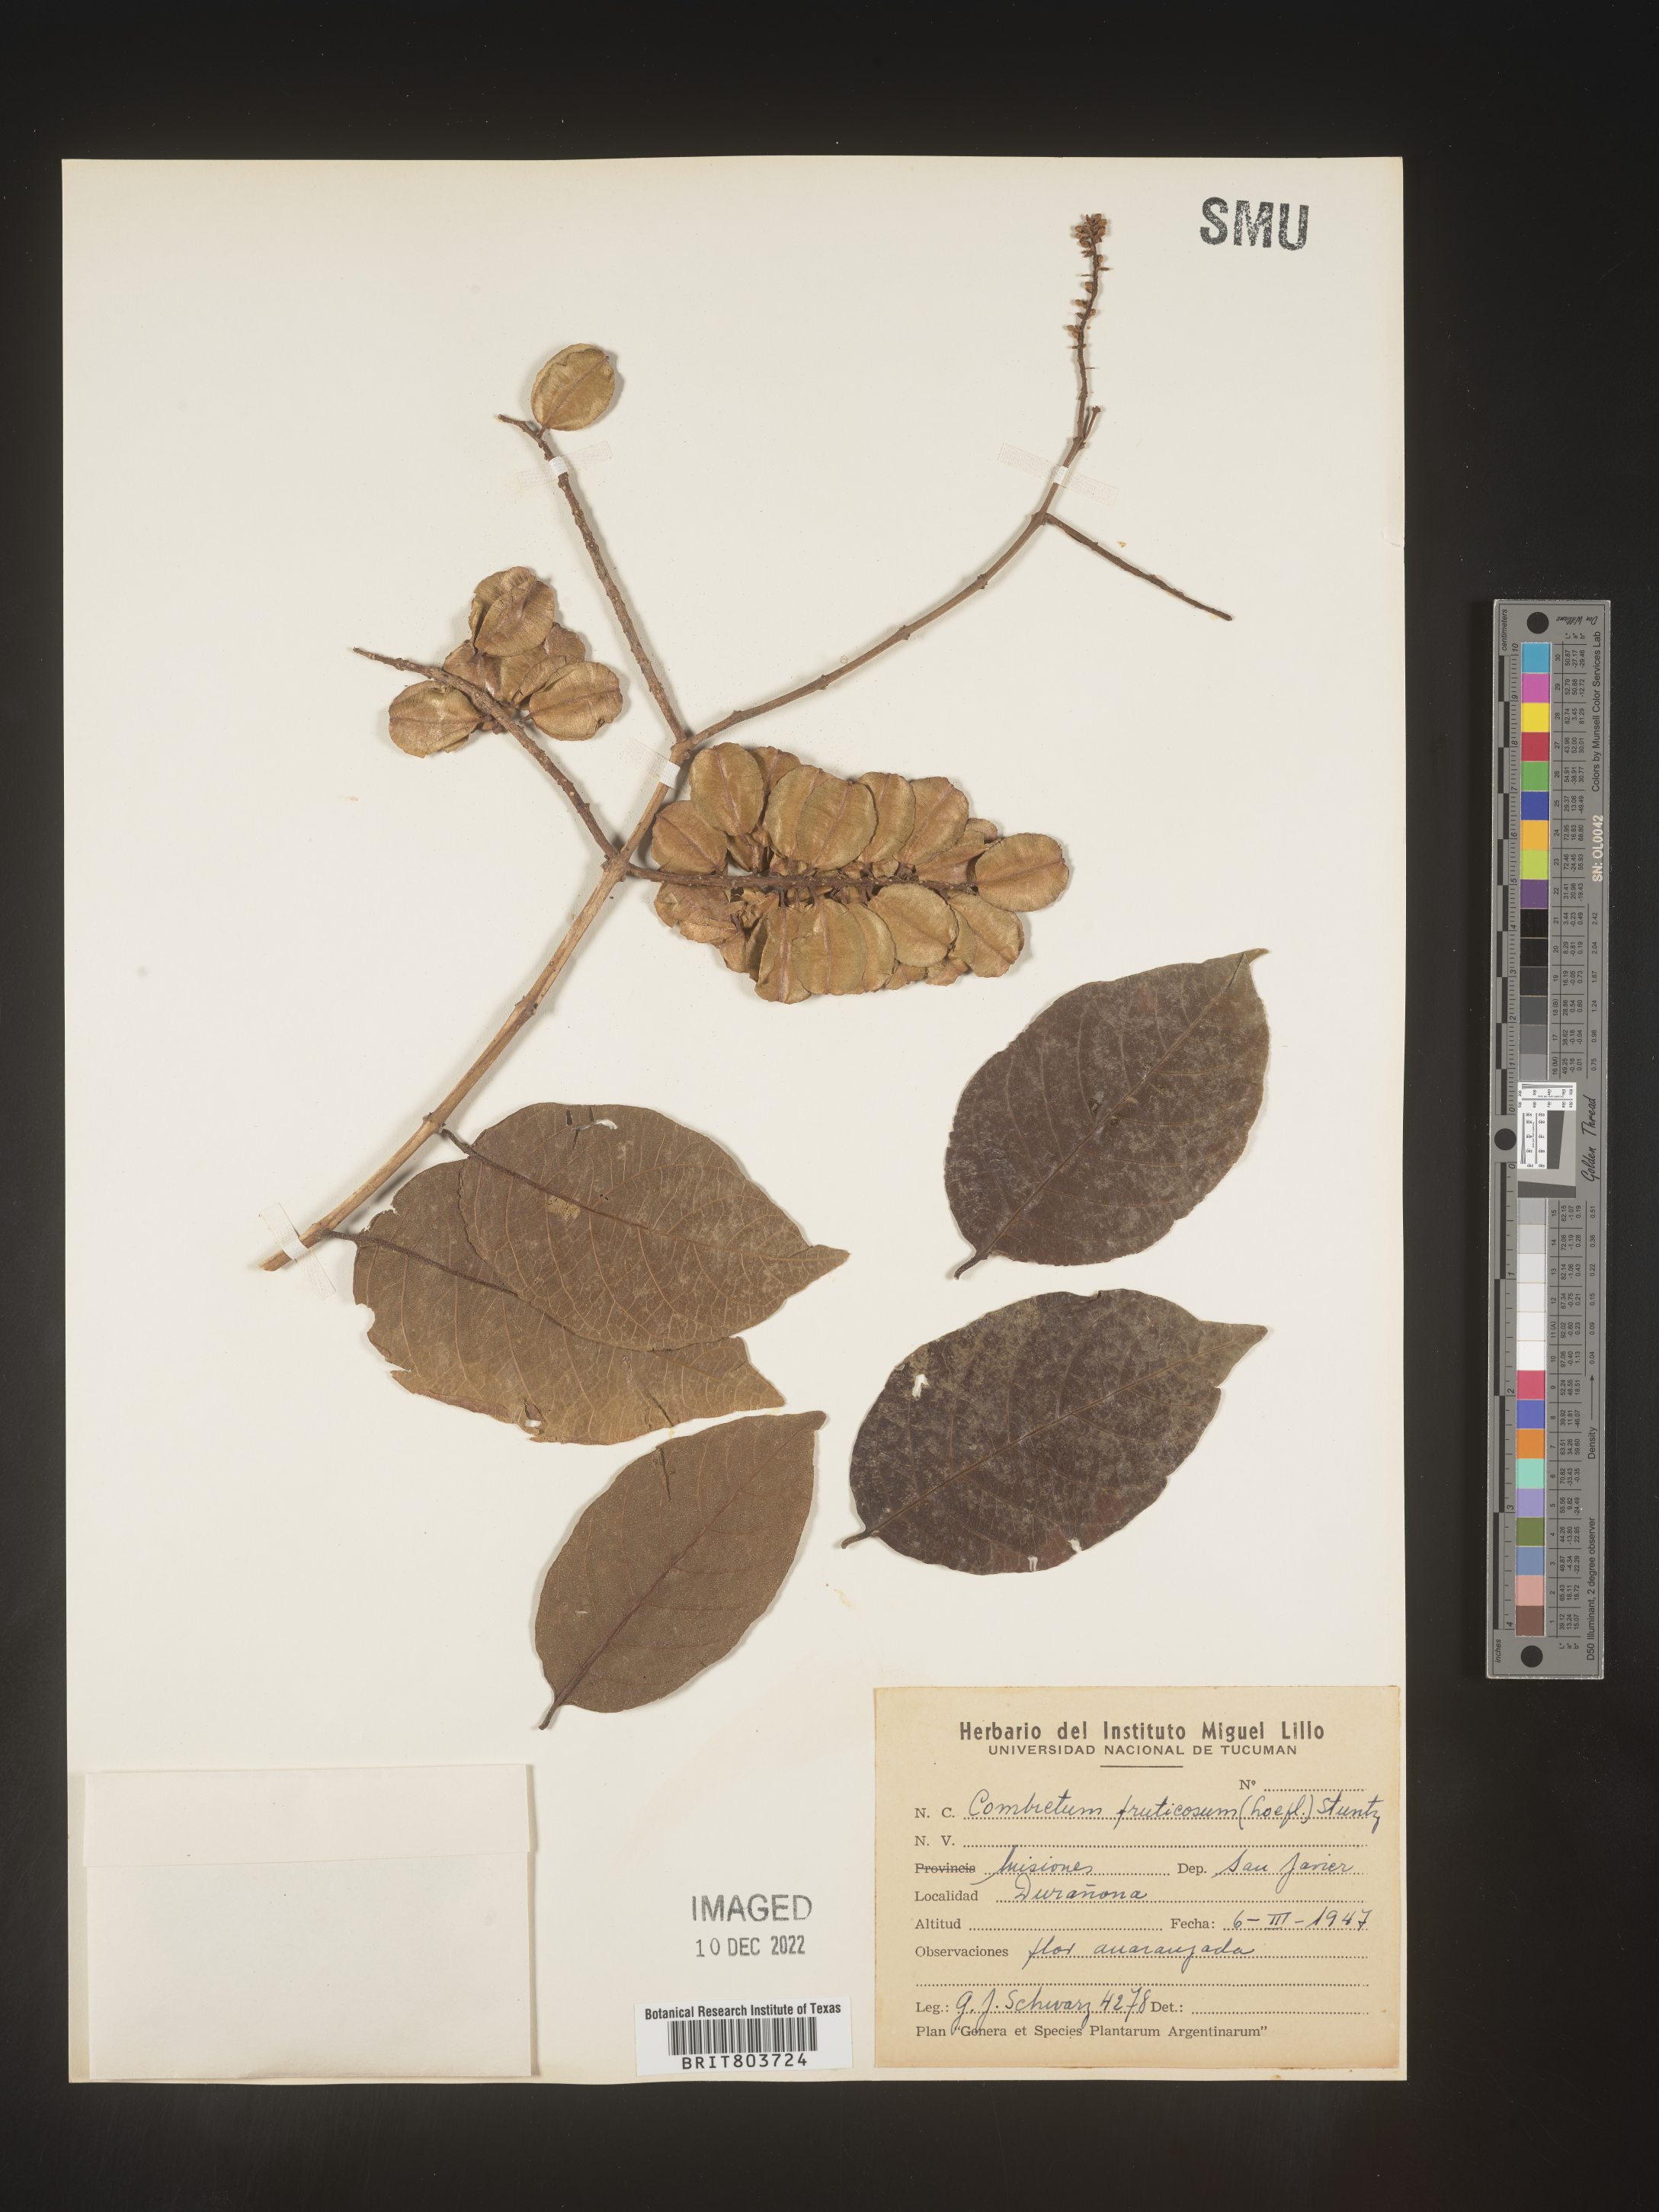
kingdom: Plantae
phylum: Tracheophyta
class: Magnoliopsida
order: Myrtales
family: Combretaceae
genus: Combretum
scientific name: Combretum
